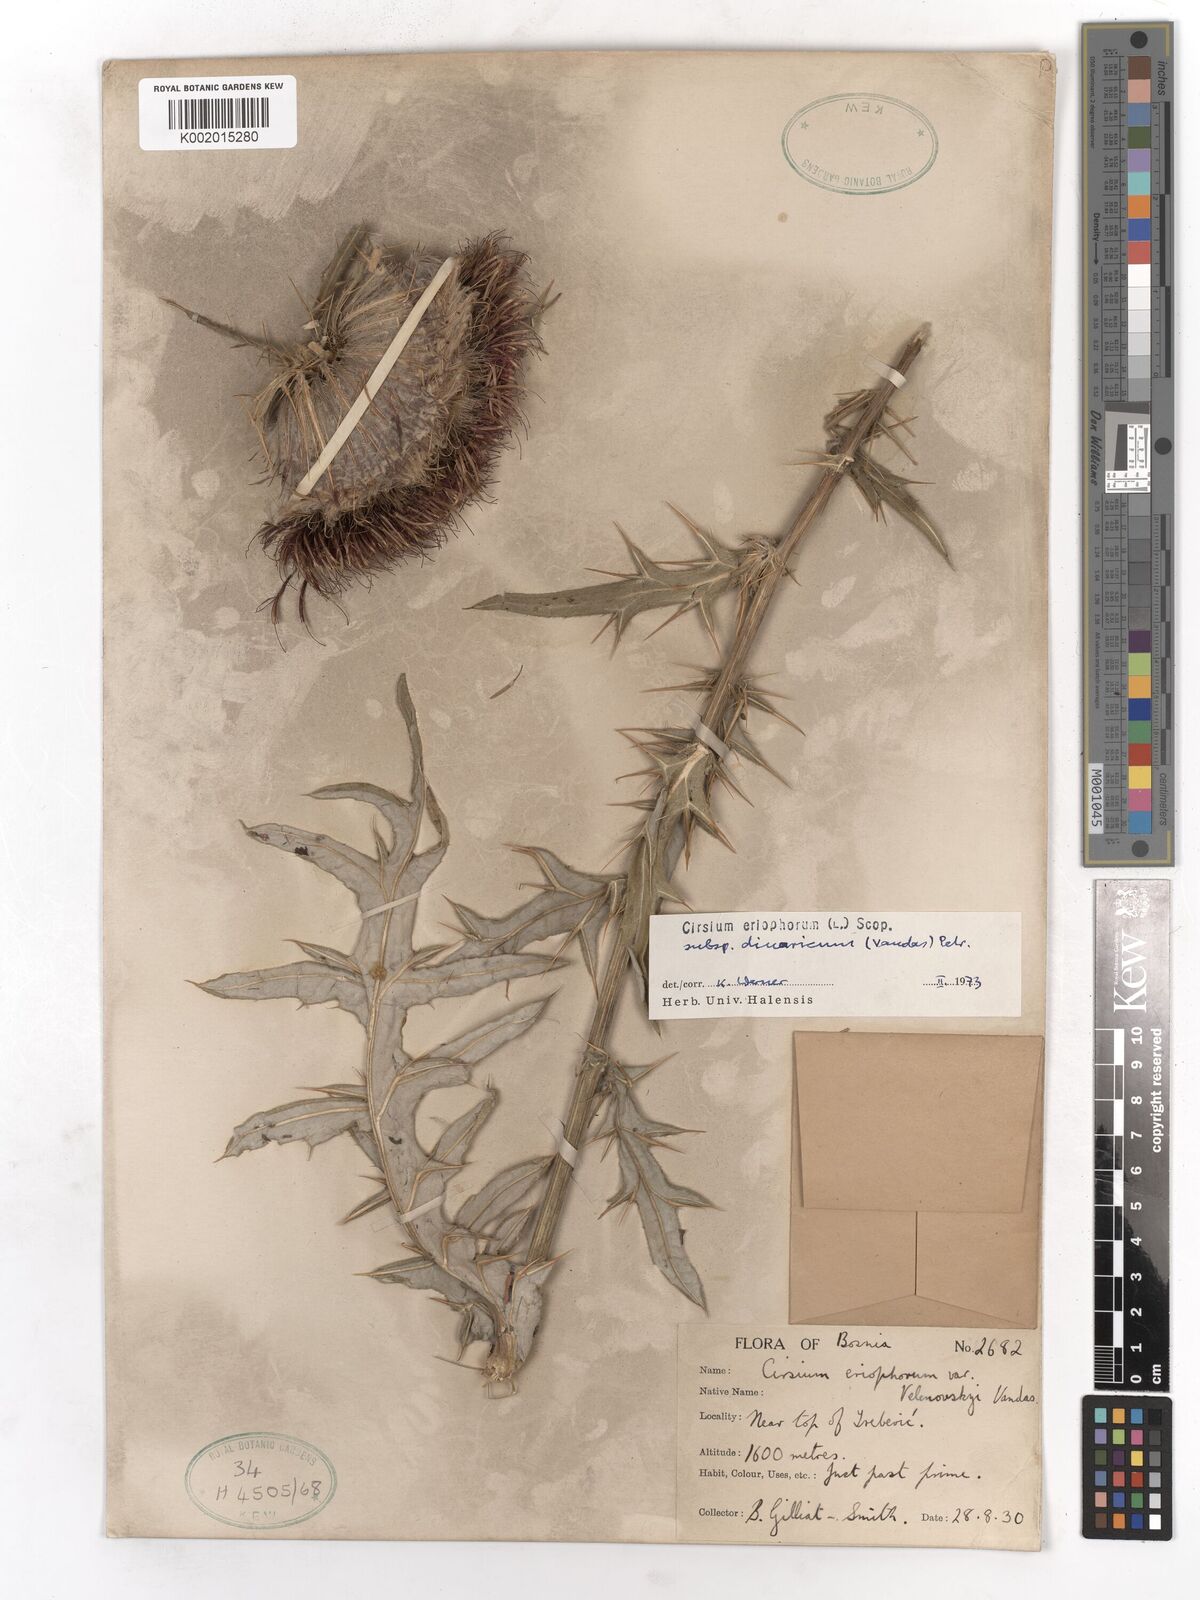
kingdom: Plantae
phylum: Tracheophyta
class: Magnoliopsida
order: Asterales
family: Asteraceae
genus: Lophiolepis
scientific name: Lophiolepis eriophora
